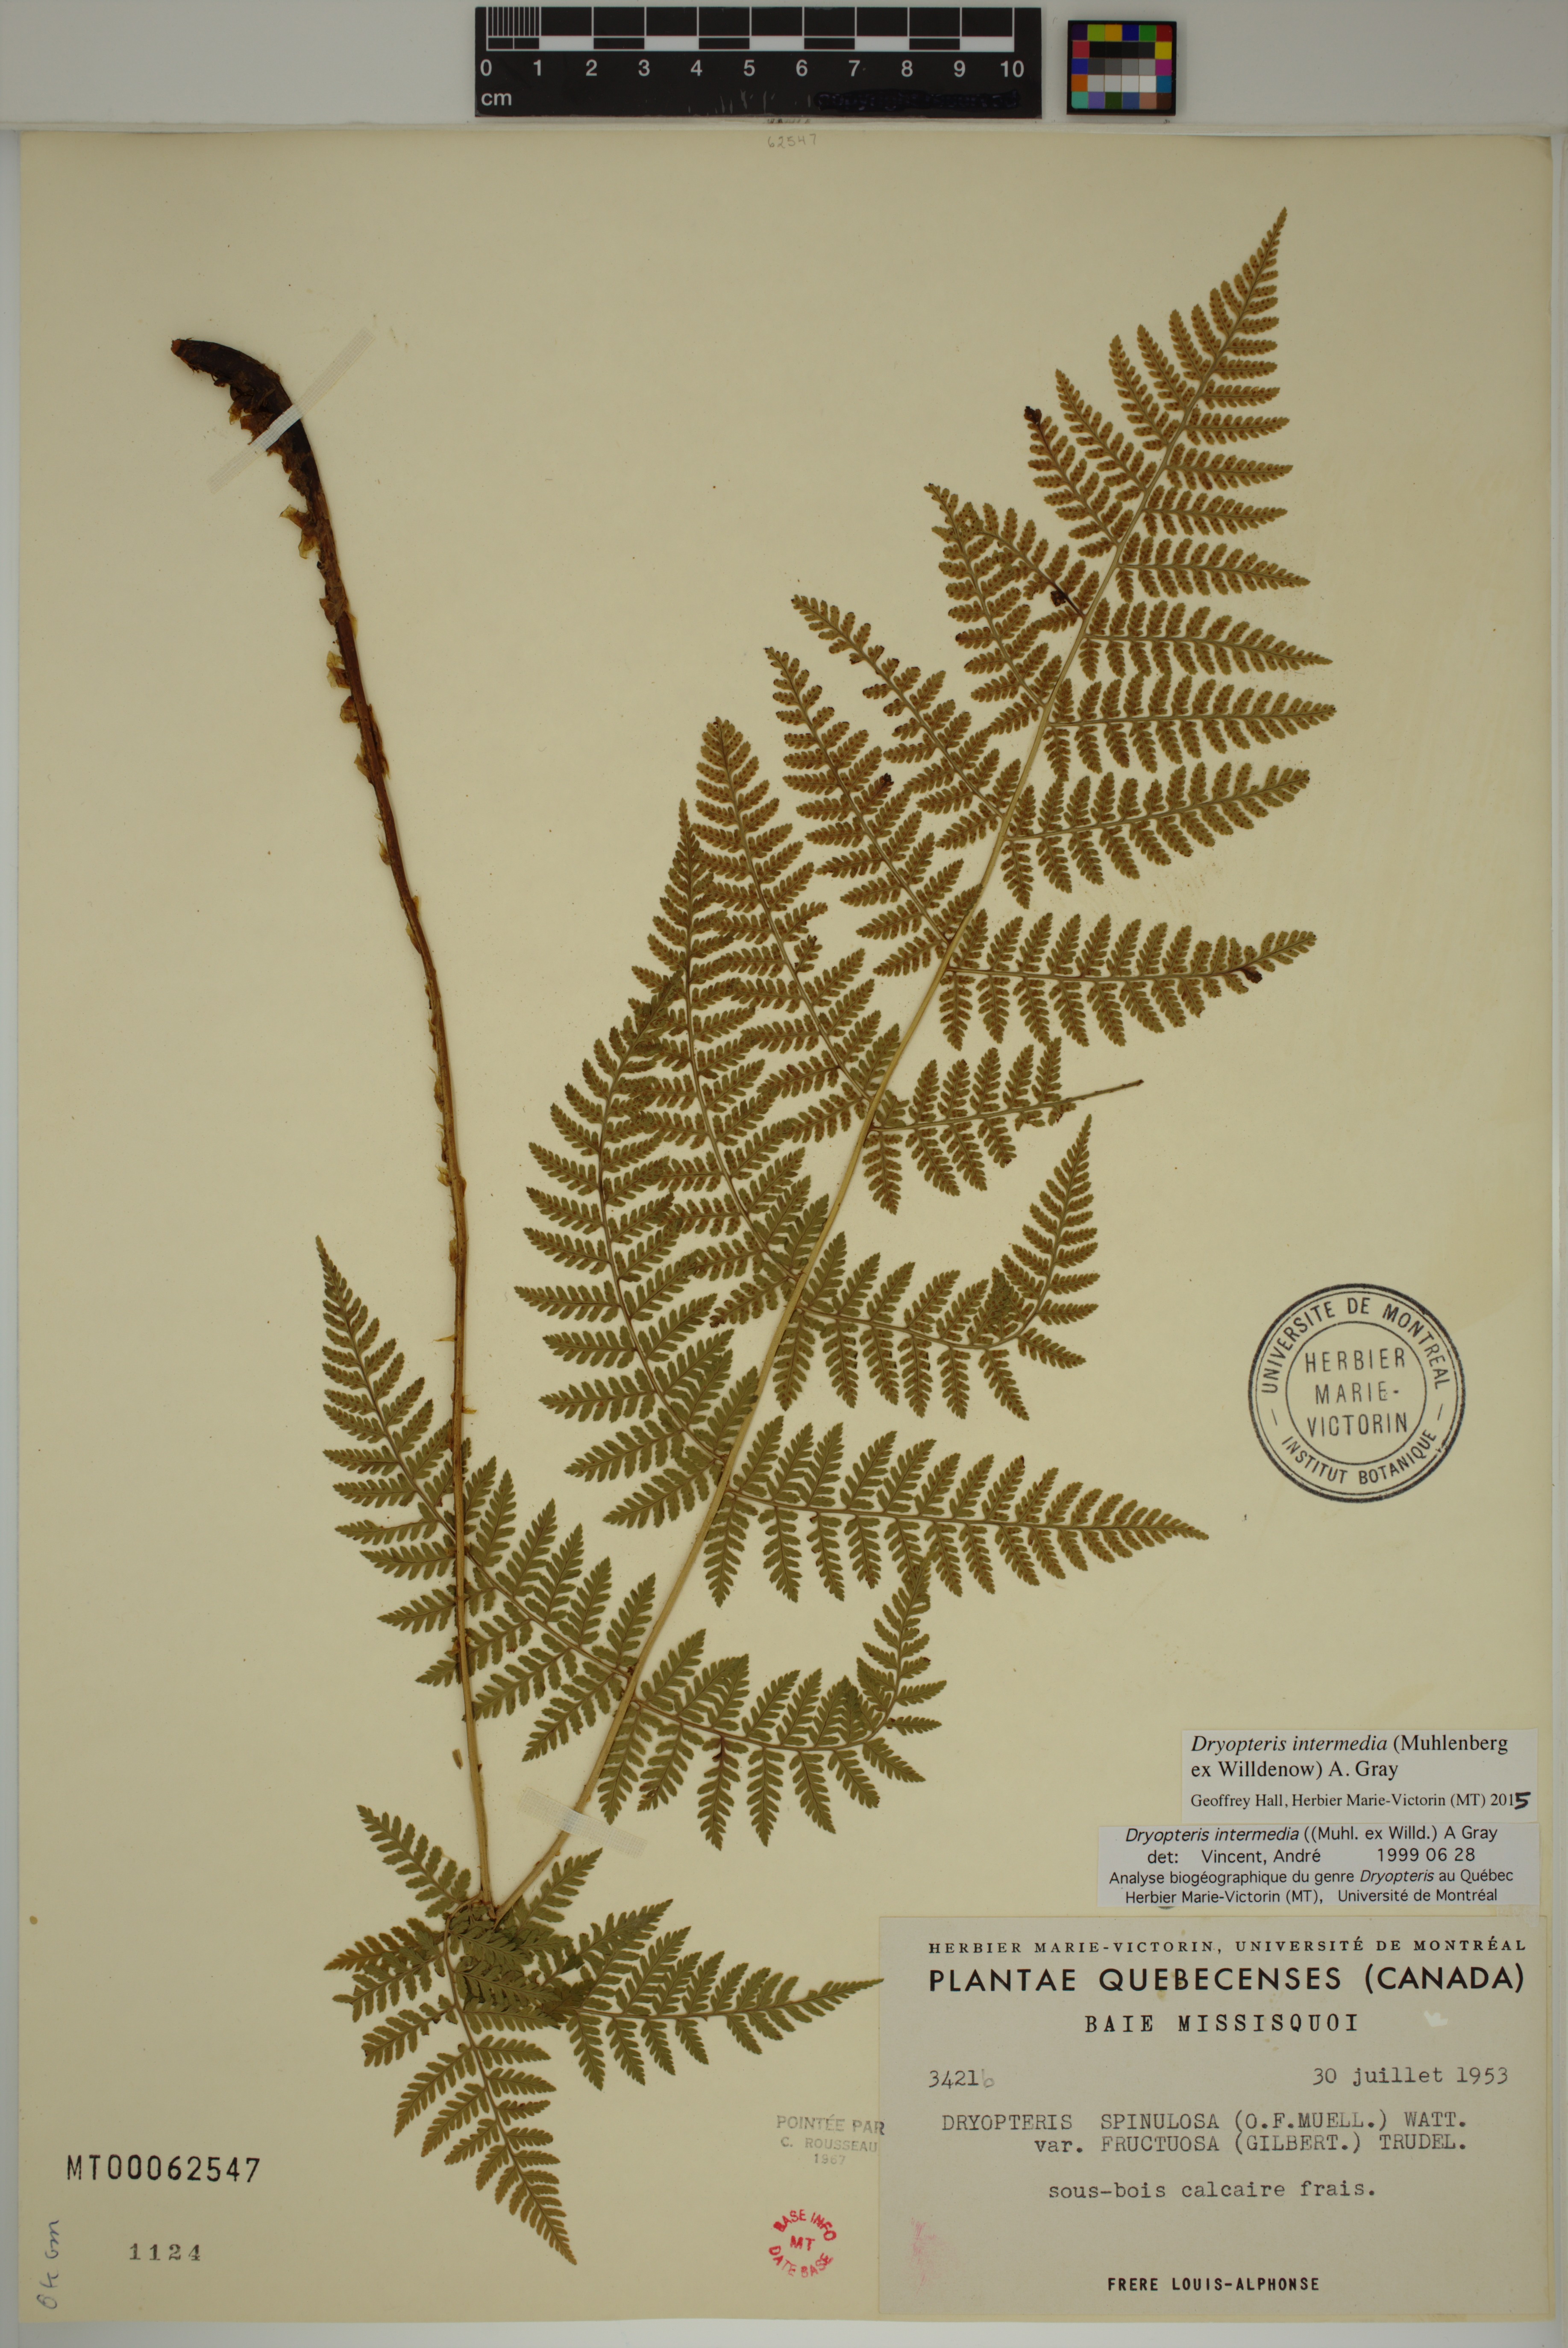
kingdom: Plantae
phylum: Tracheophyta
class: Polypodiopsida
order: Polypodiales
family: Dryopteridaceae
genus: Dryopteris
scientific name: Dryopteris intermedia
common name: Evergreen wood fern
